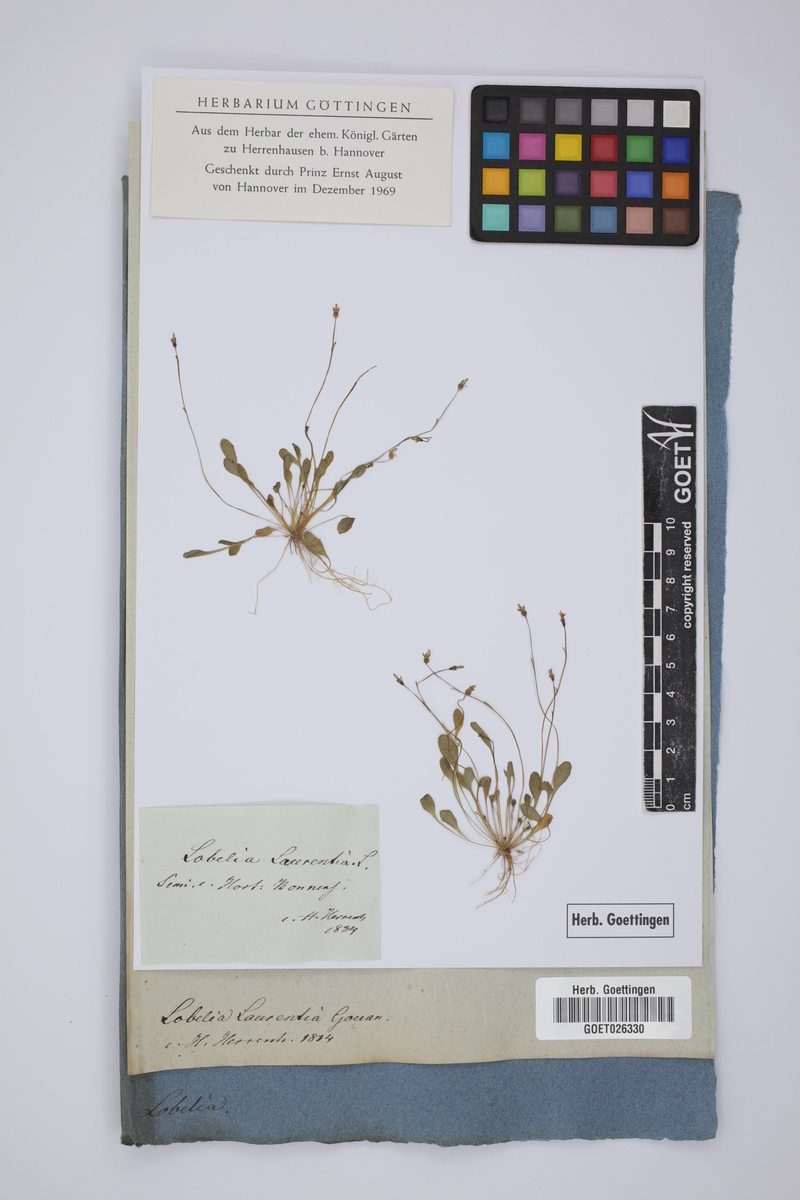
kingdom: Plantae
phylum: Tracheophyta
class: Magnoliopsida
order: Asterales
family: Campanulaceae
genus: Solenopsis
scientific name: Solenopsis laurentia
